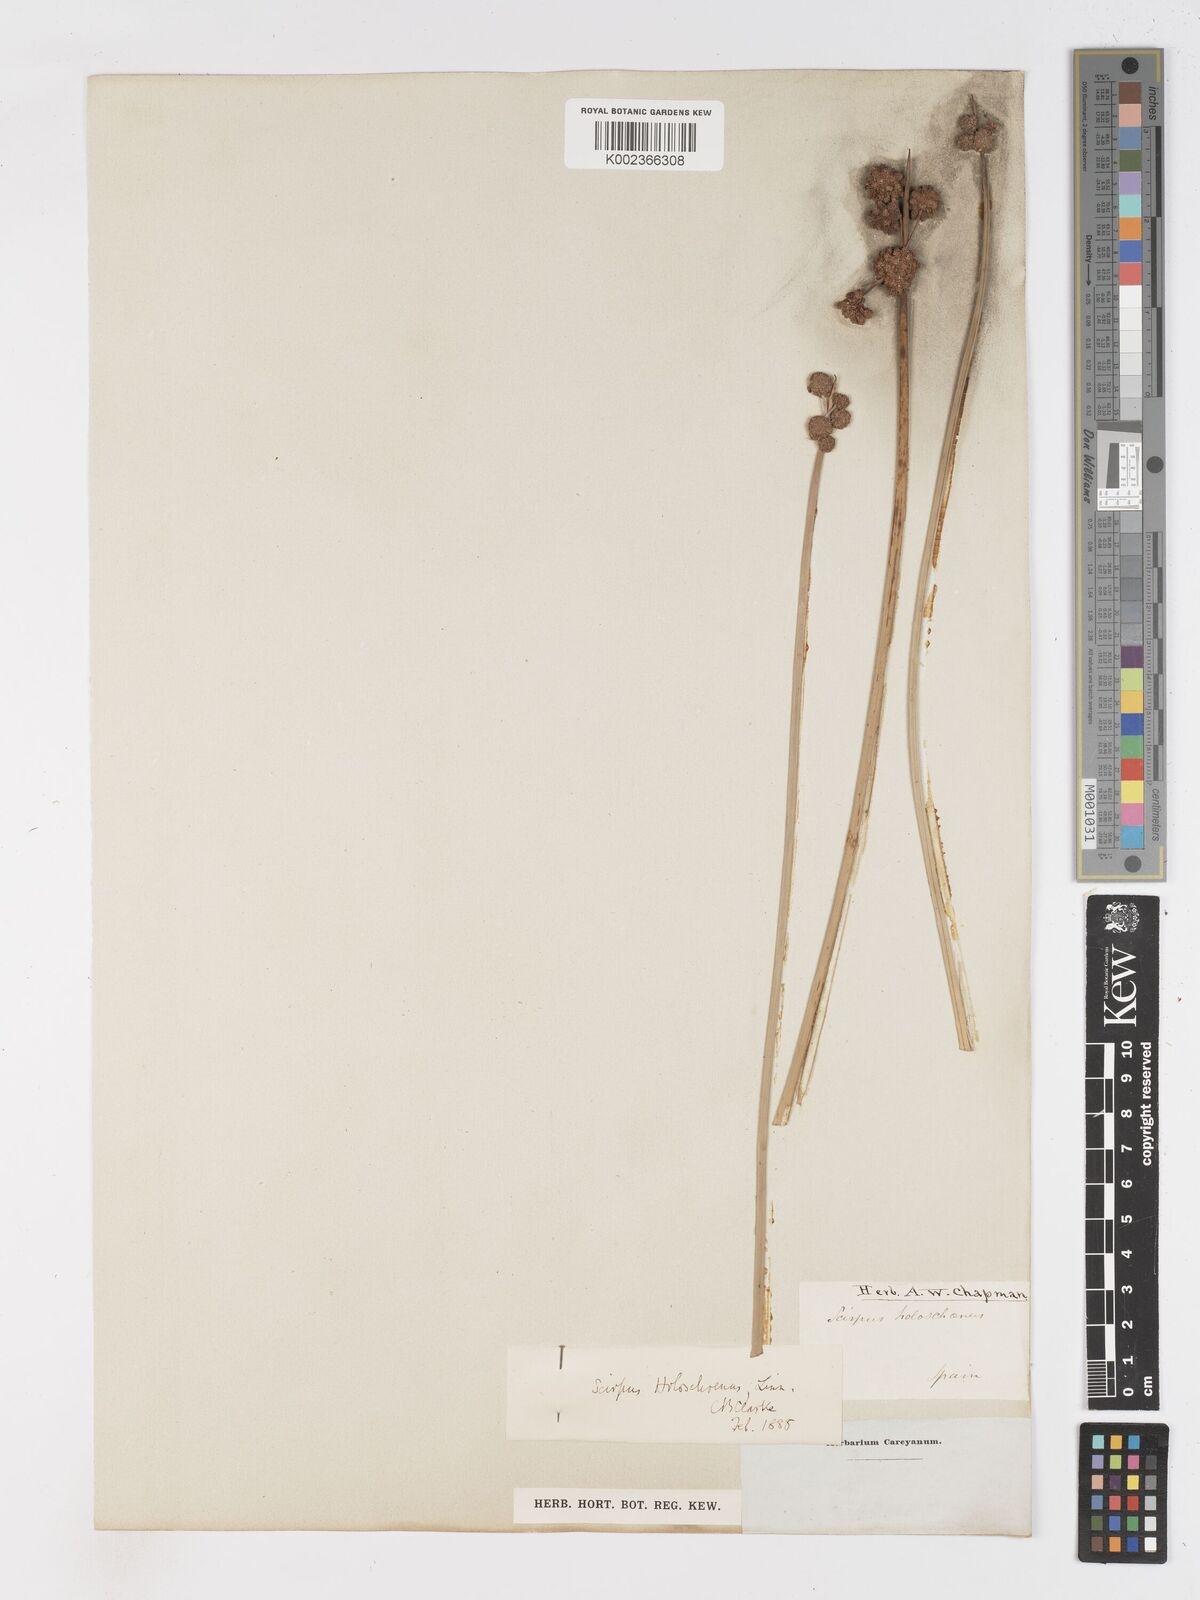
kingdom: Plantae
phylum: Tracheophyta
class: Liliopsida
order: Poales
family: Cyperaceae
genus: Scirpoides
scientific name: Scirpoides holoschoenus
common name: Round-headed club-rush
